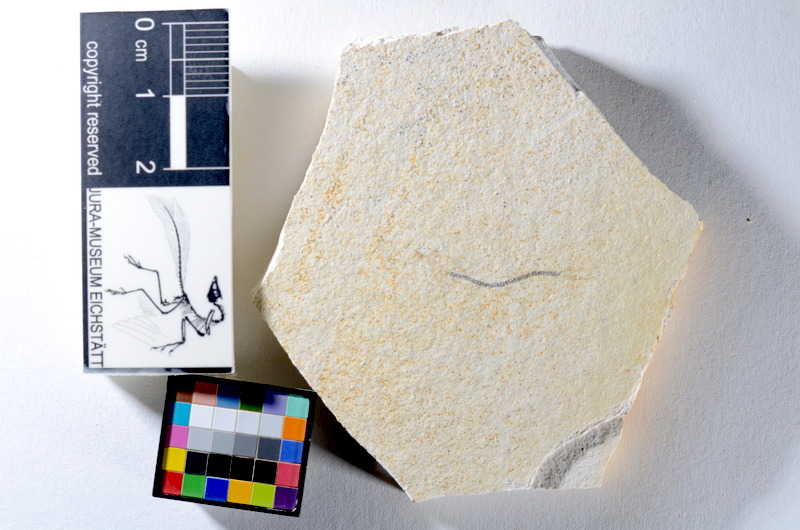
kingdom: Animalia
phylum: Chordata
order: Salmoniformes
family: Orthogonikleithridae
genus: Orthogonikleithrus
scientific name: Orthogonikleithrus hoelli
